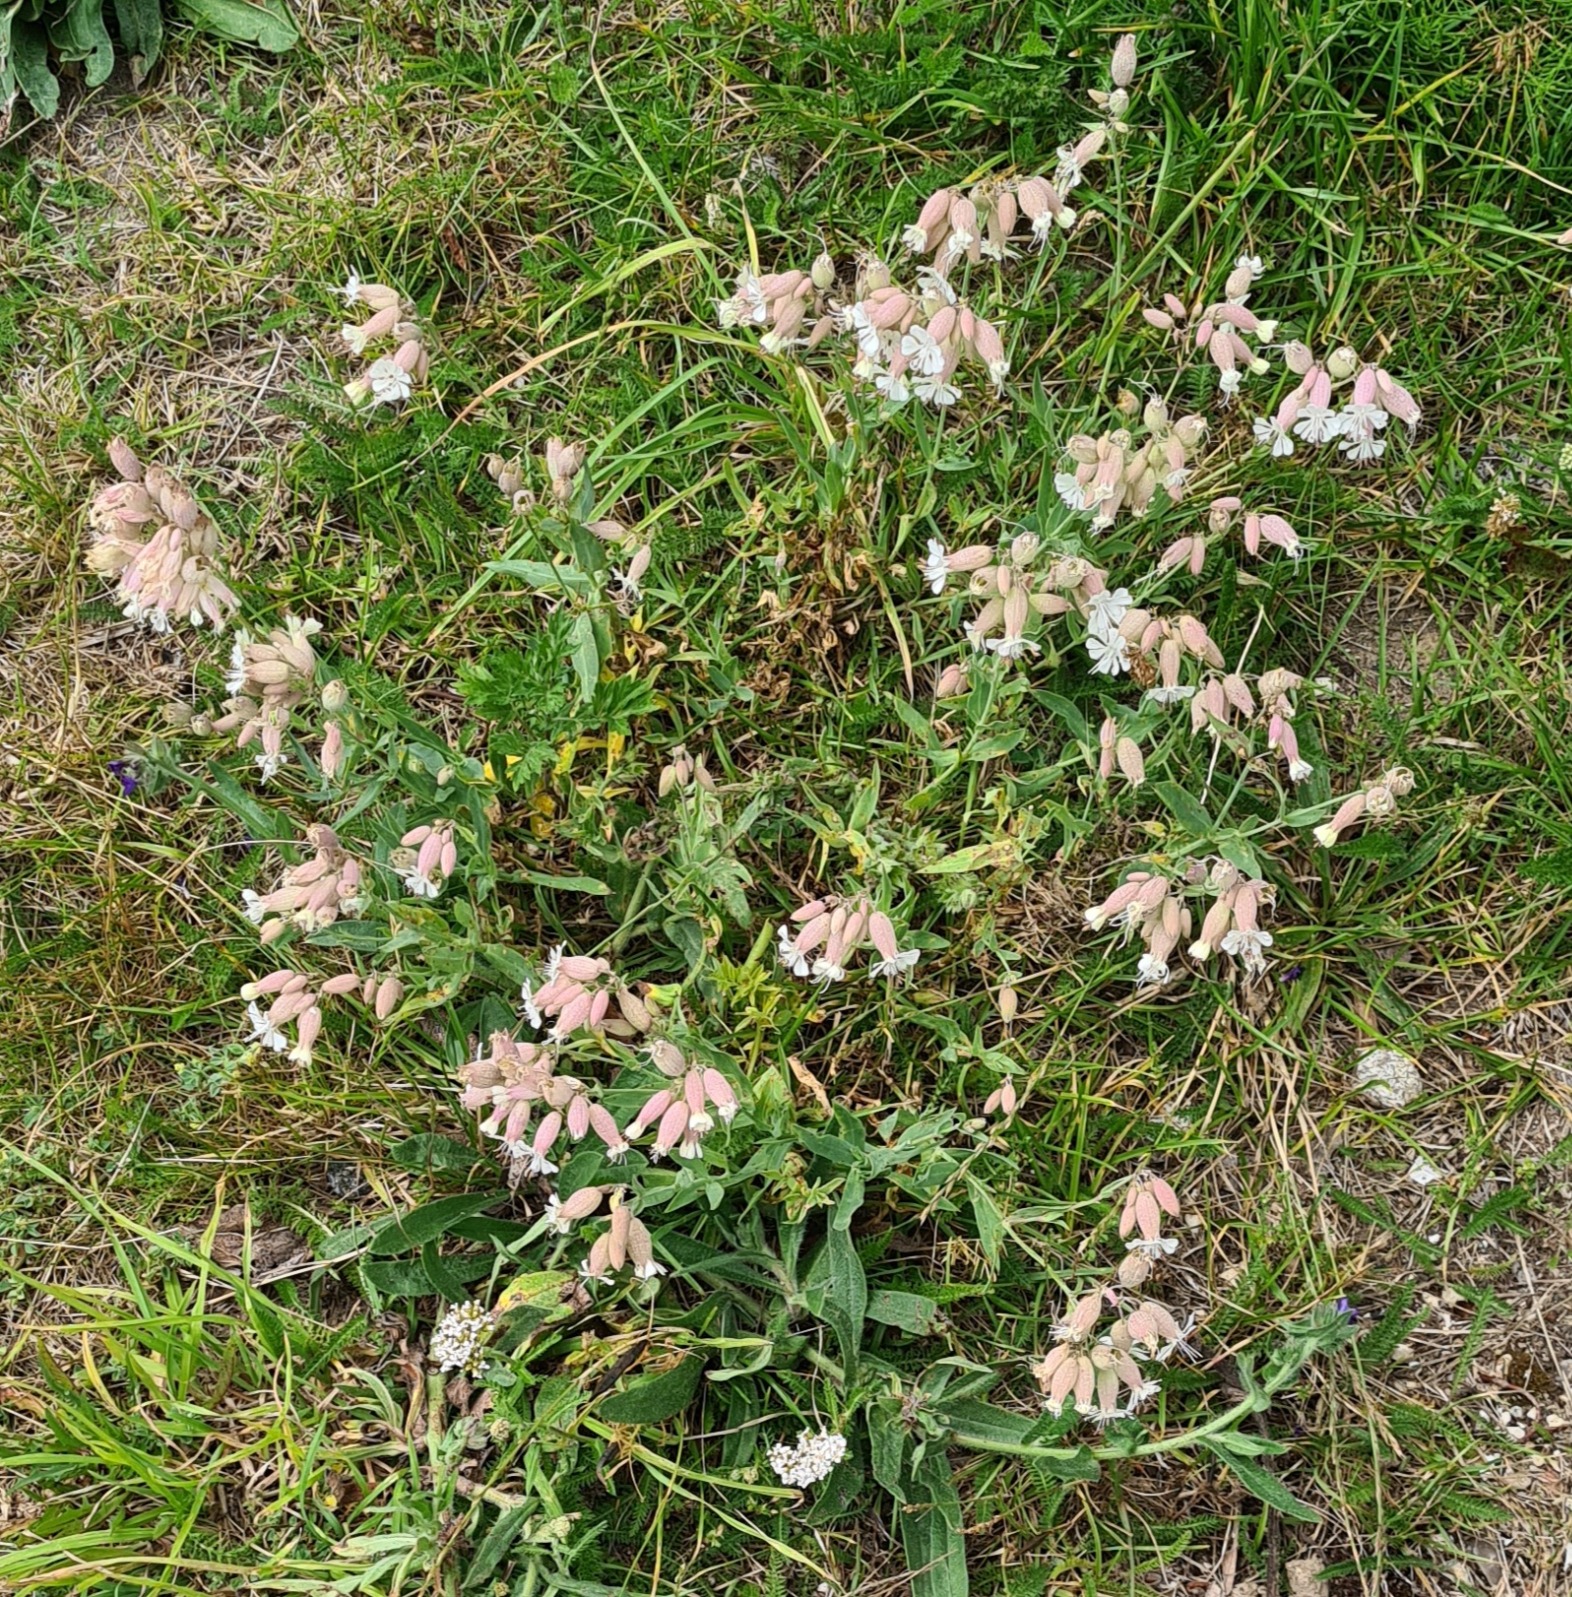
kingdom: Plantae
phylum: Tracheophyta
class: Magnoliopsida
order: Caryophyllales
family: Caryophyllaceae
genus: Silene
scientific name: Silene vulgaris
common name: Blæresmælde
